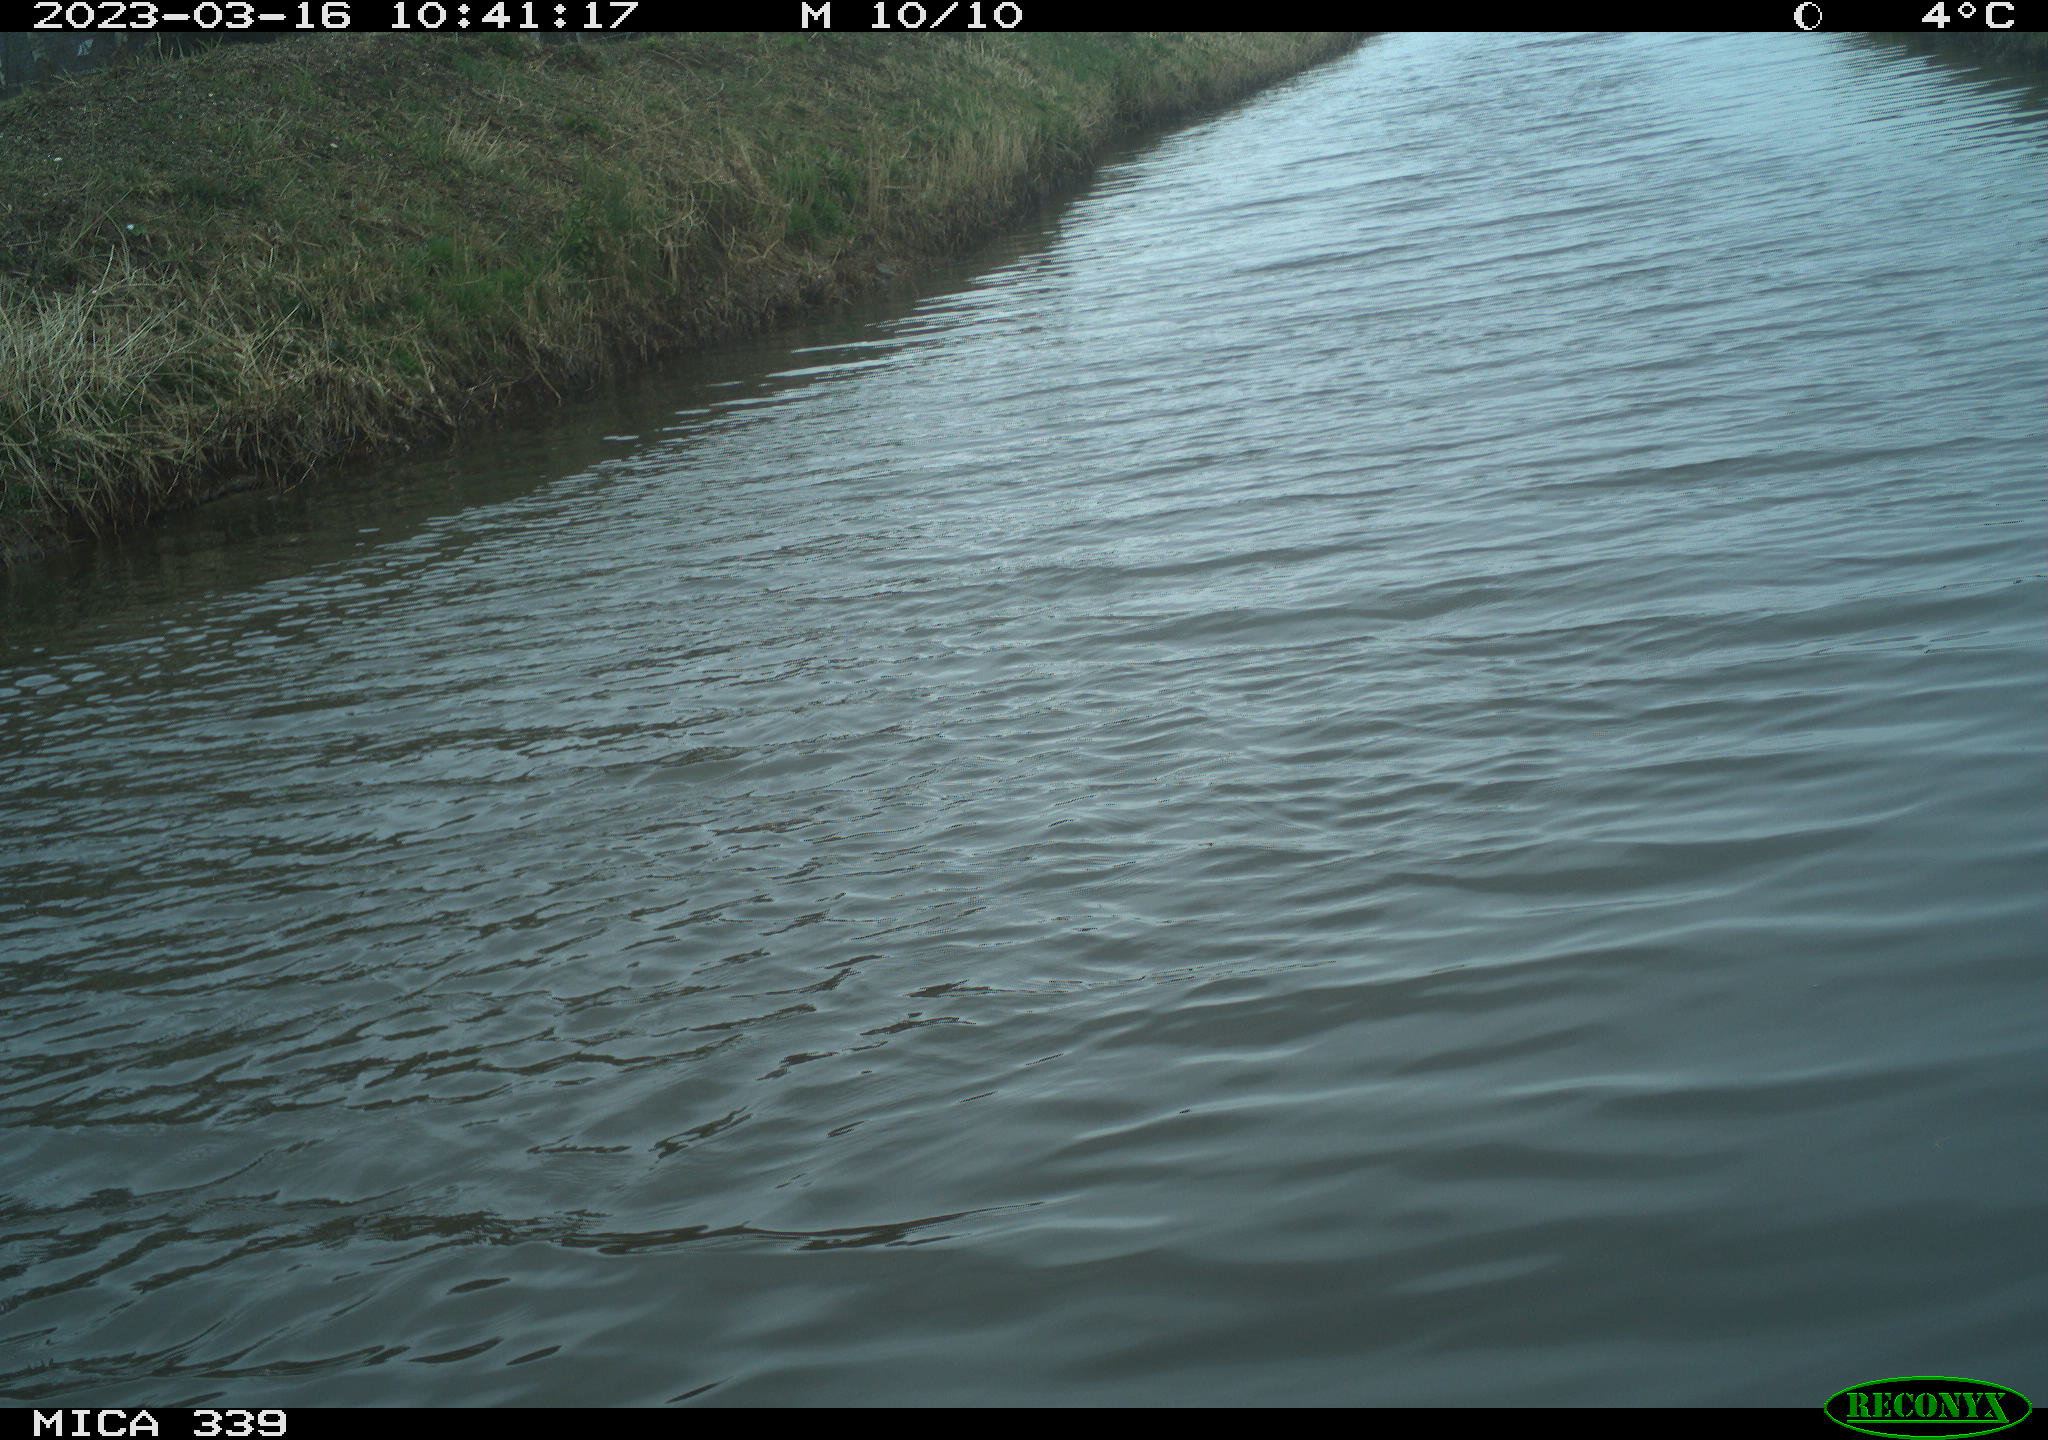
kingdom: Animalia
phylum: Chordata
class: Aves
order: Anseriformes
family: Anatidae
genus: Anas
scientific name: Anas
